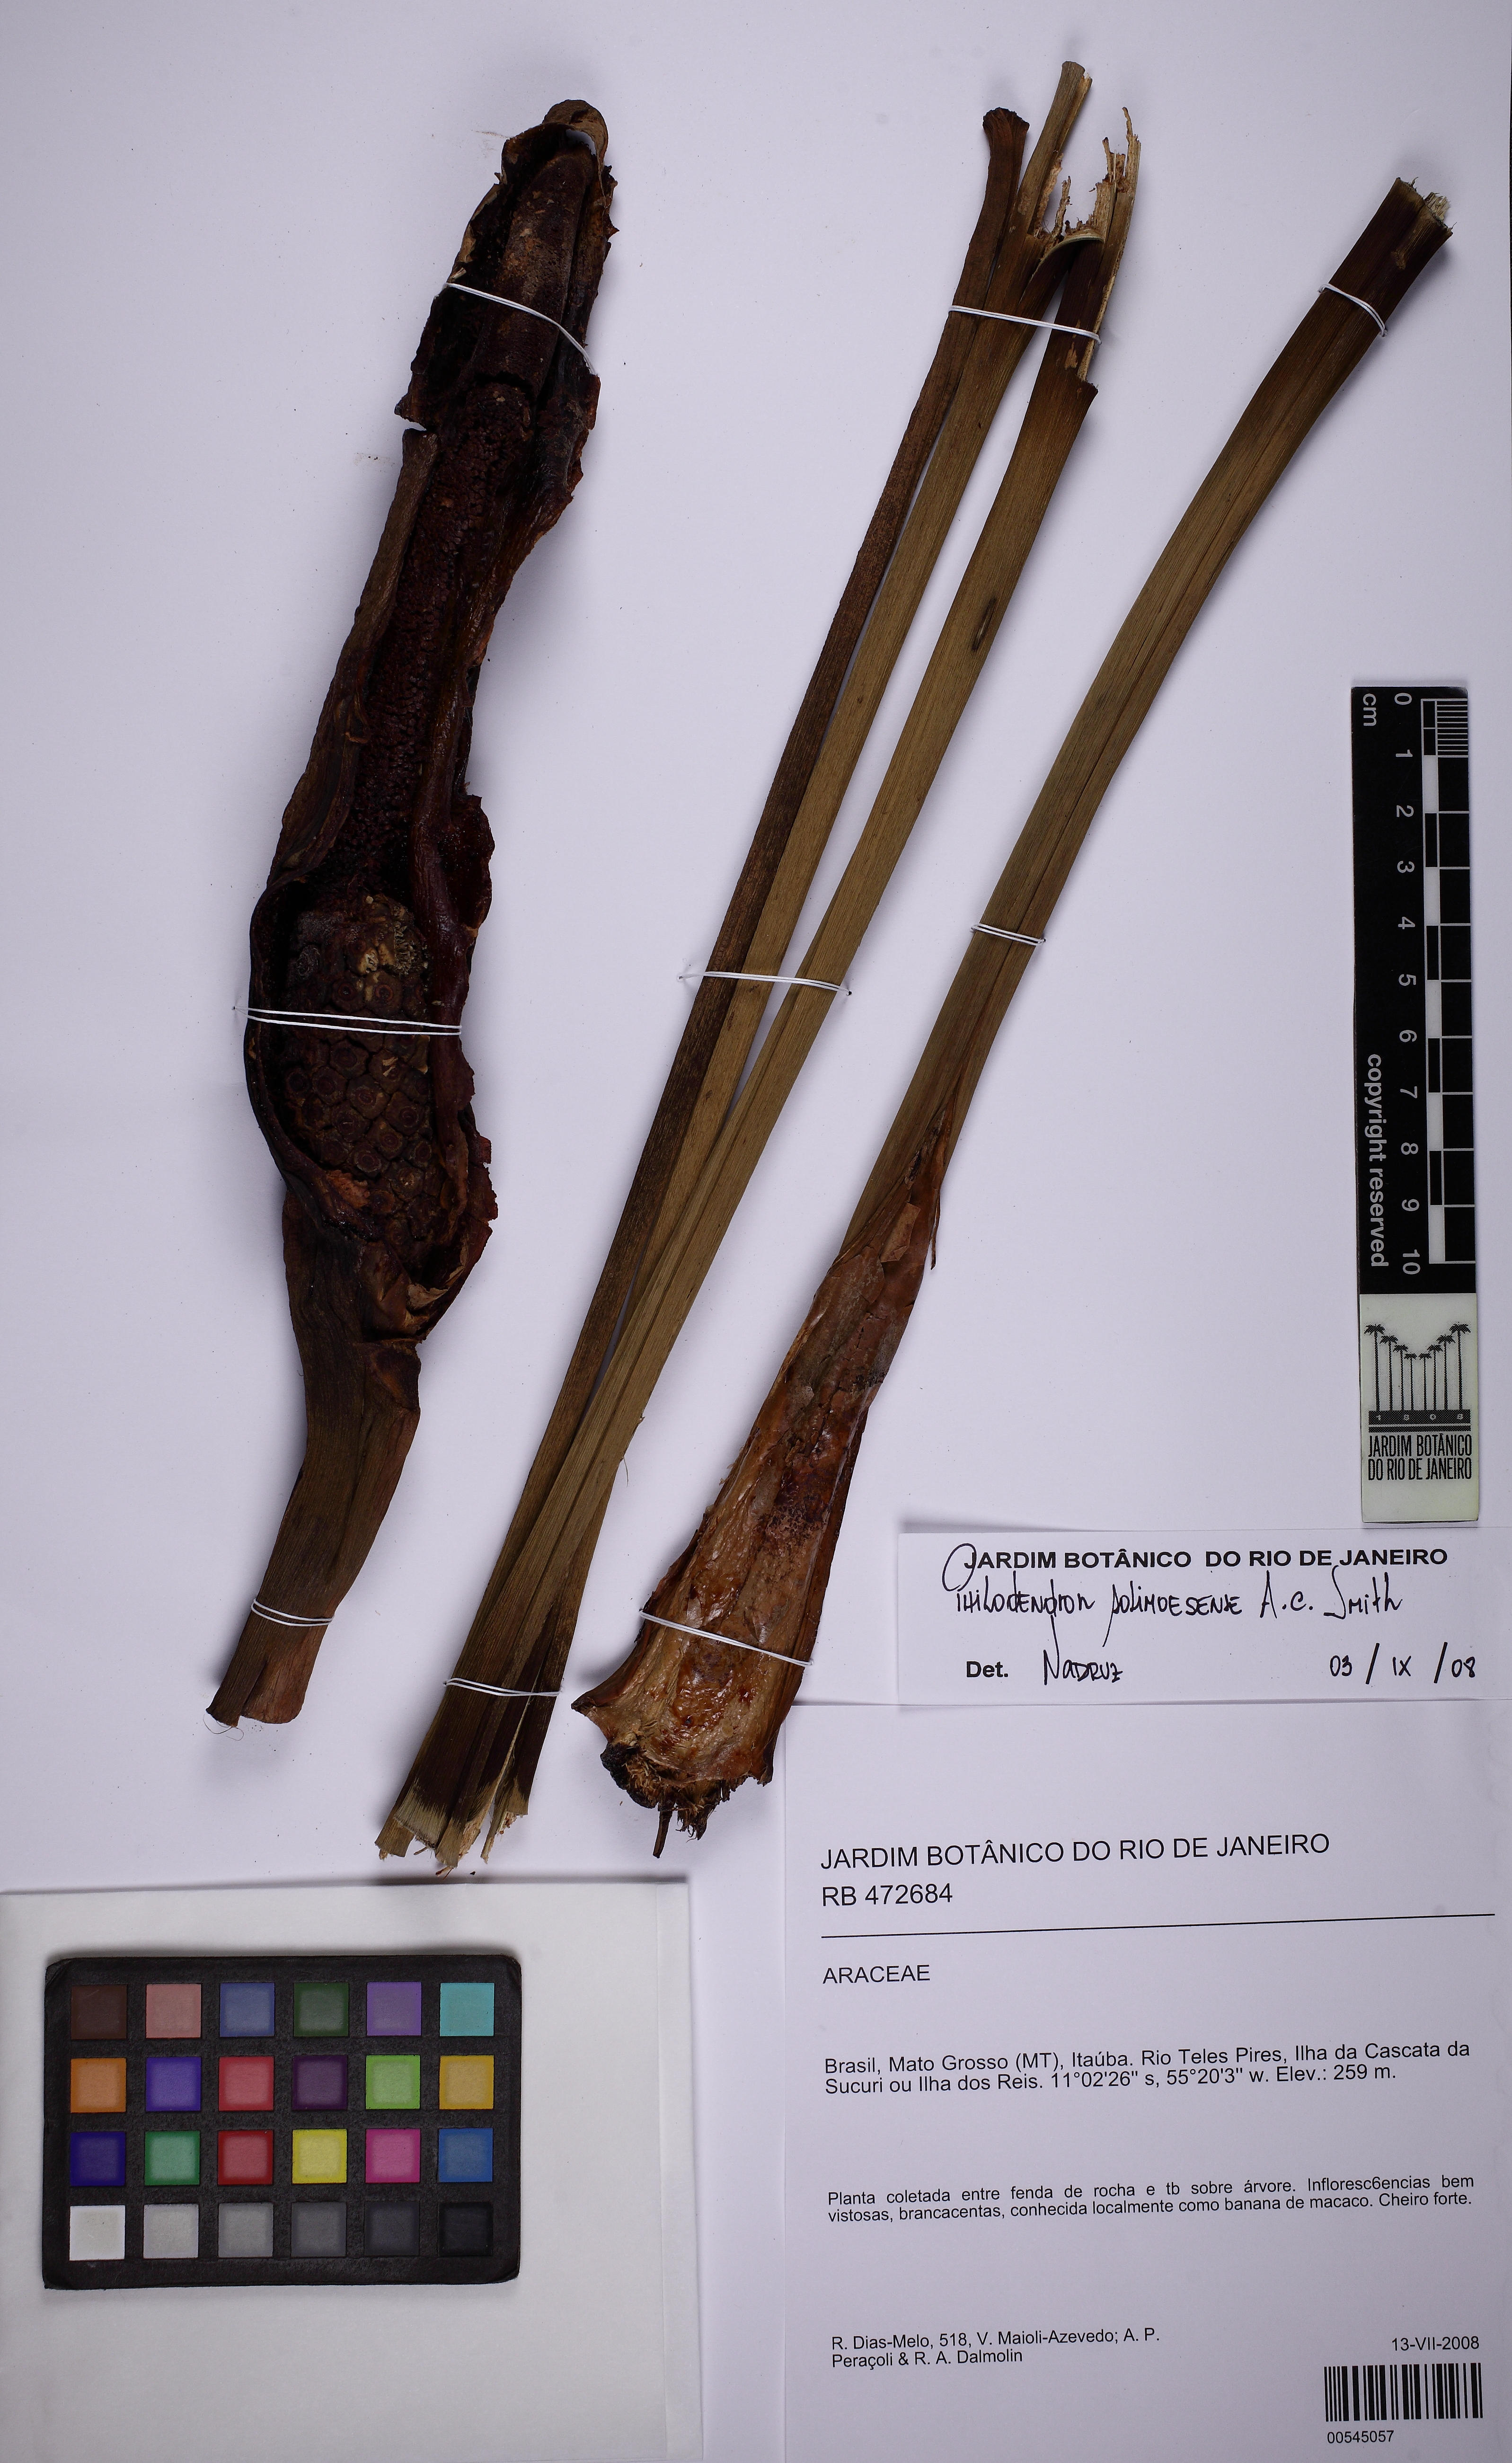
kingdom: Plantae
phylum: Tracheophyta
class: Liliopsida
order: Alismatales
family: Araceae
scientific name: Araceae
